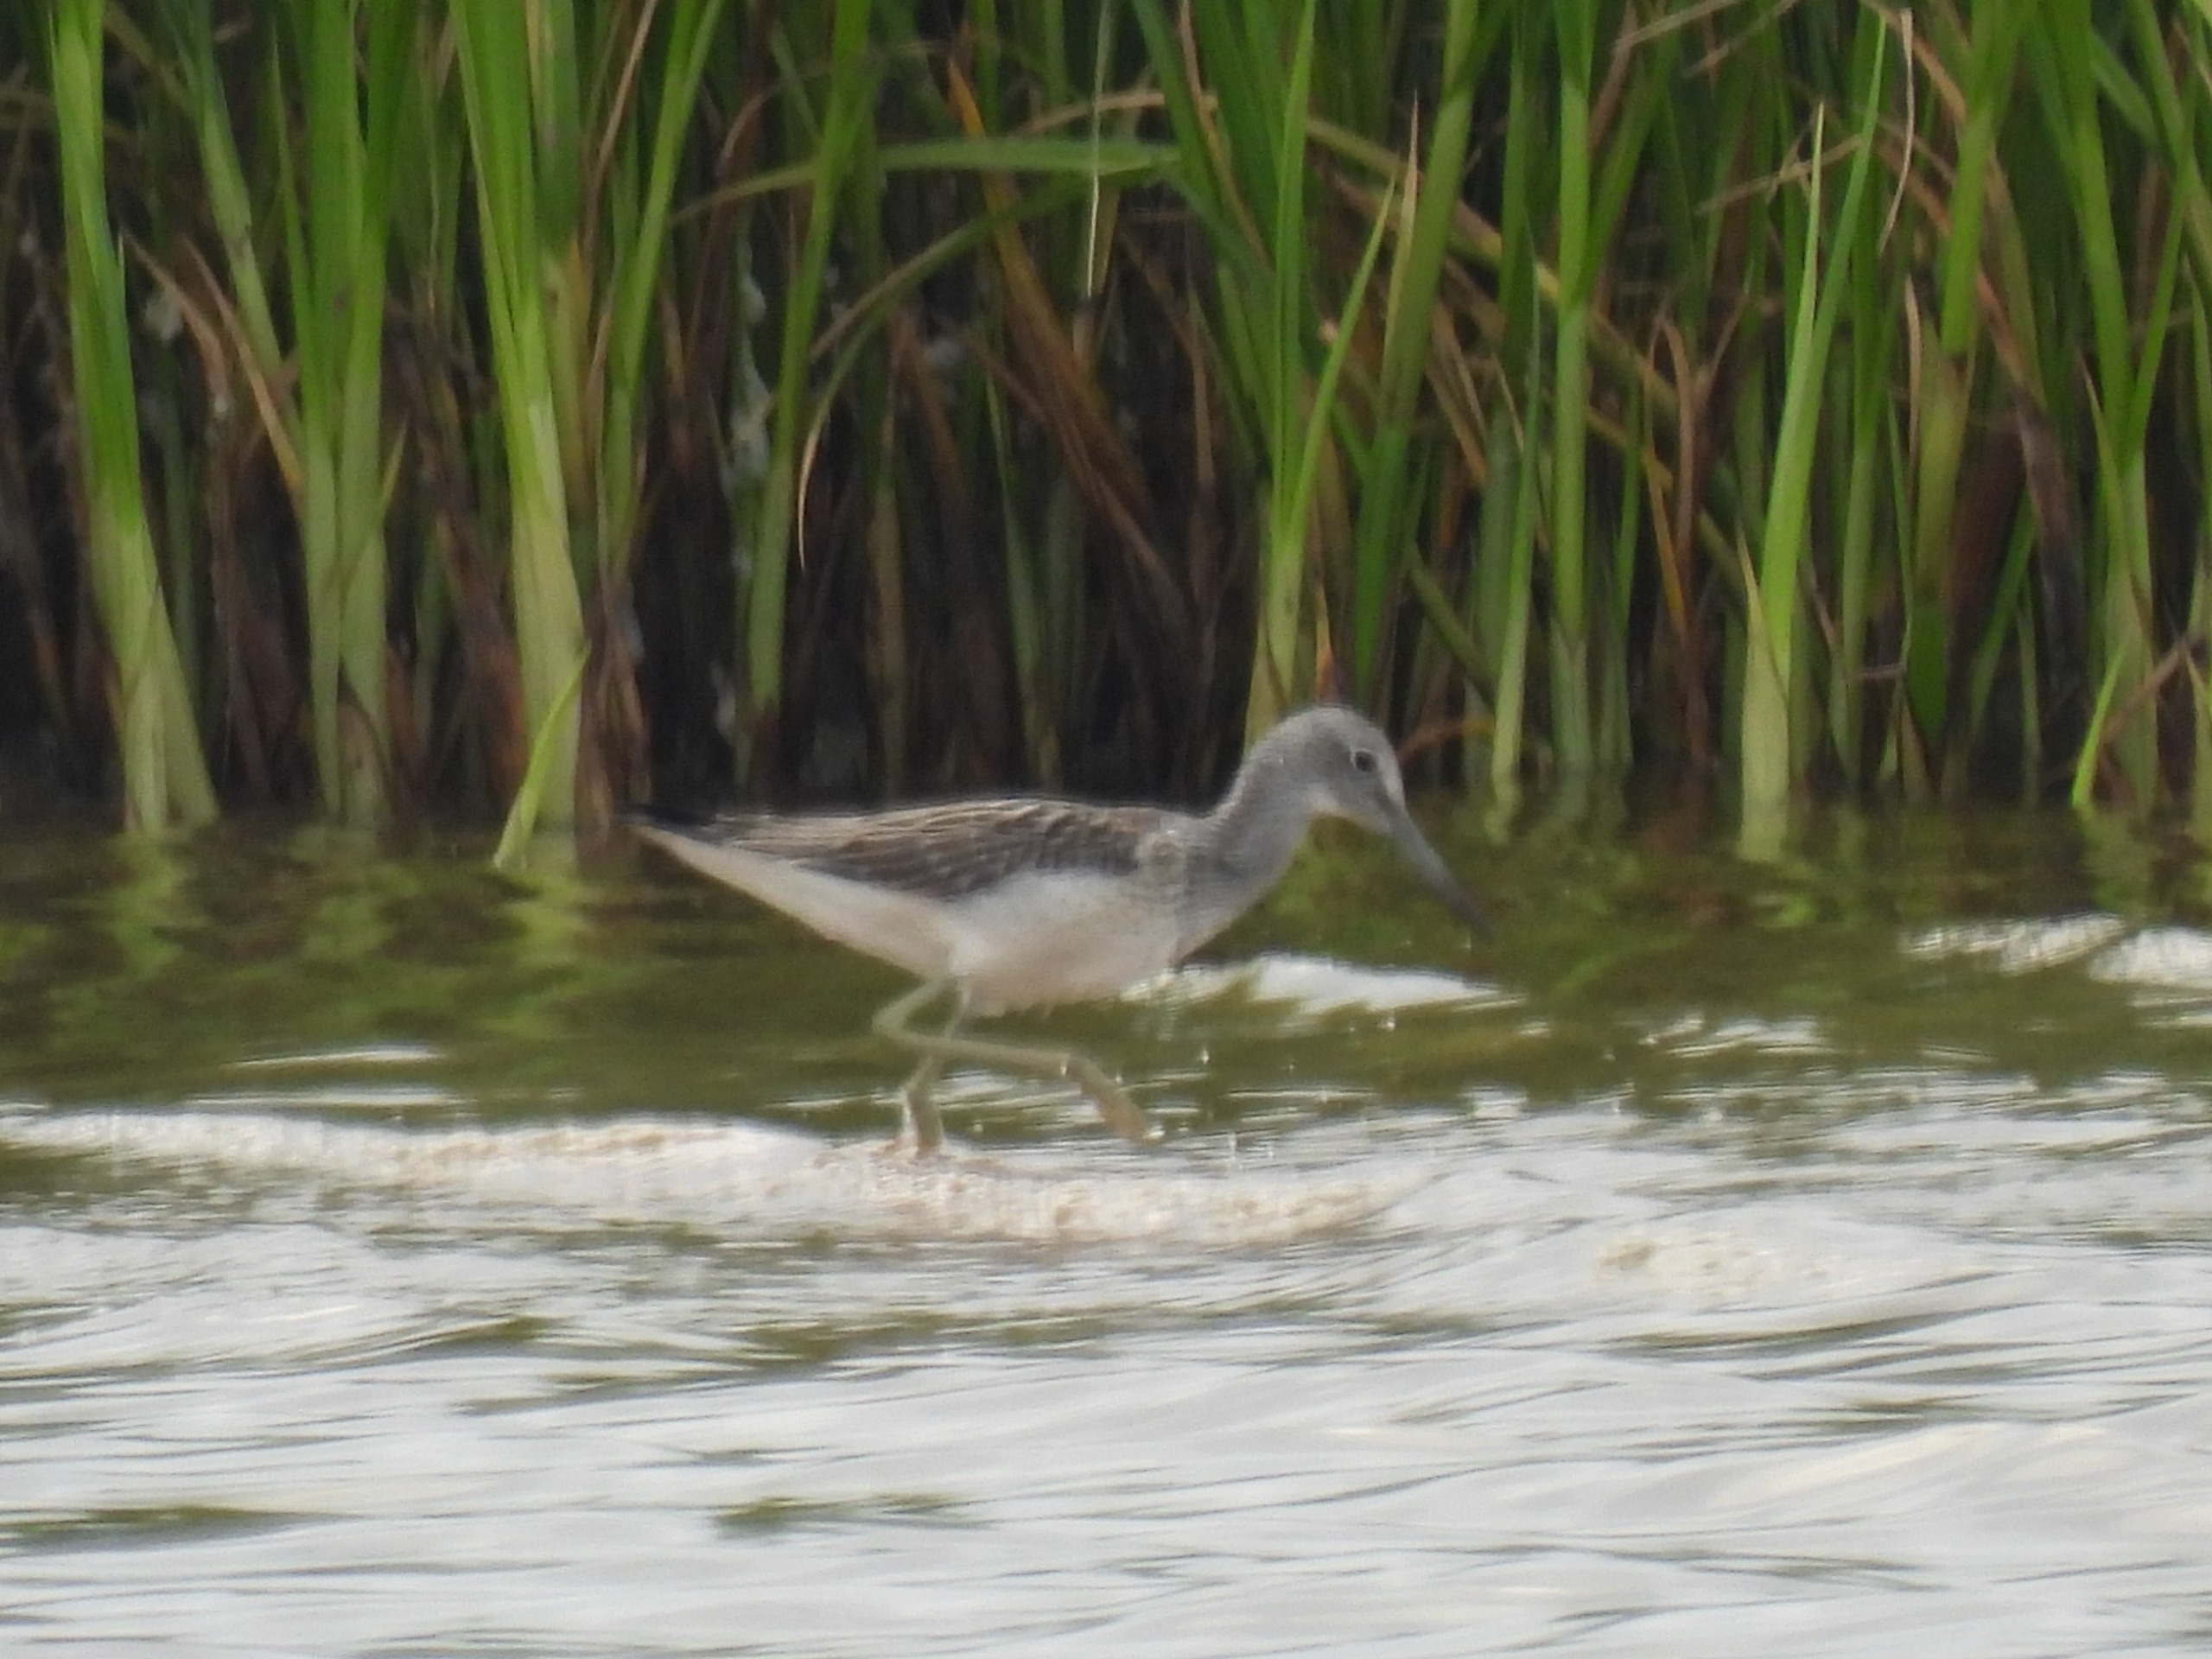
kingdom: Animalia
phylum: Chordata
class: Aves
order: Charadriiformes
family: Scolopacidae
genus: Tringa
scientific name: Tringa nebularia
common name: Hvidklire
